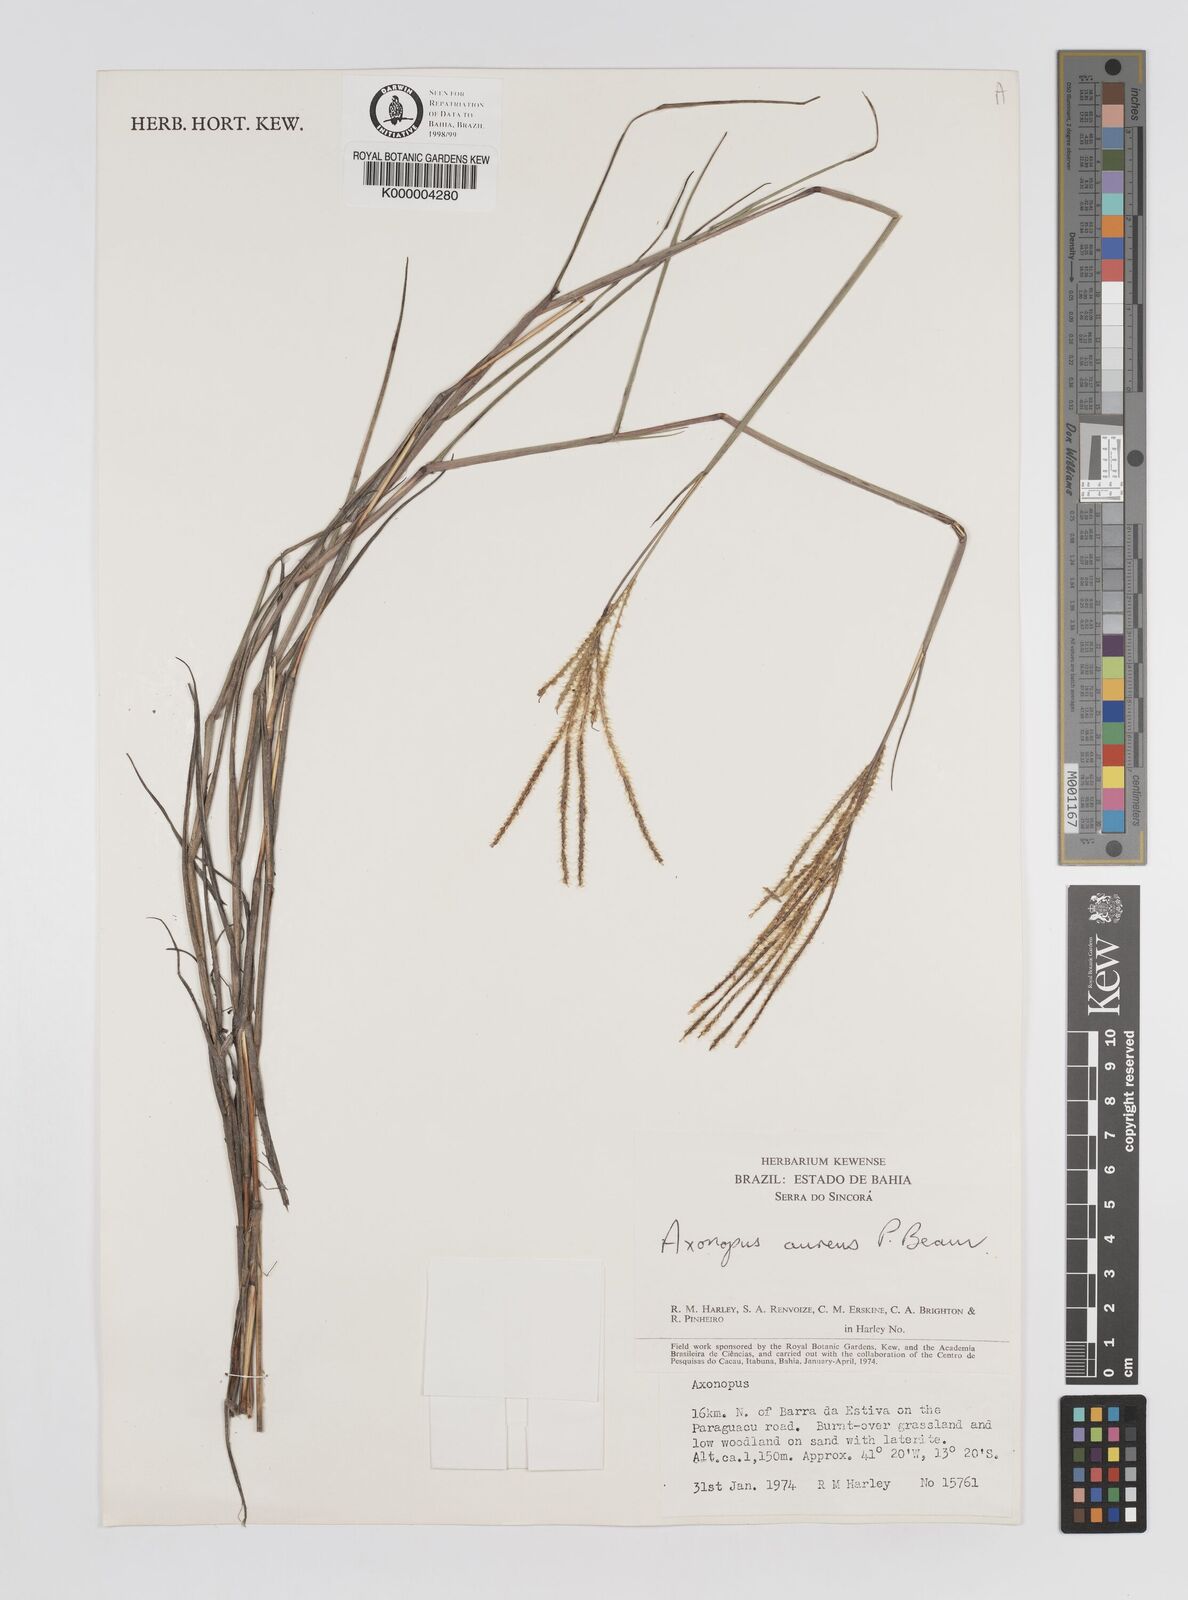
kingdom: Plantae
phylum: Tracheophyta
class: Liliopsida
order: Poales
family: Poaceae
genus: Axonopus
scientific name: Axonopus aureus
